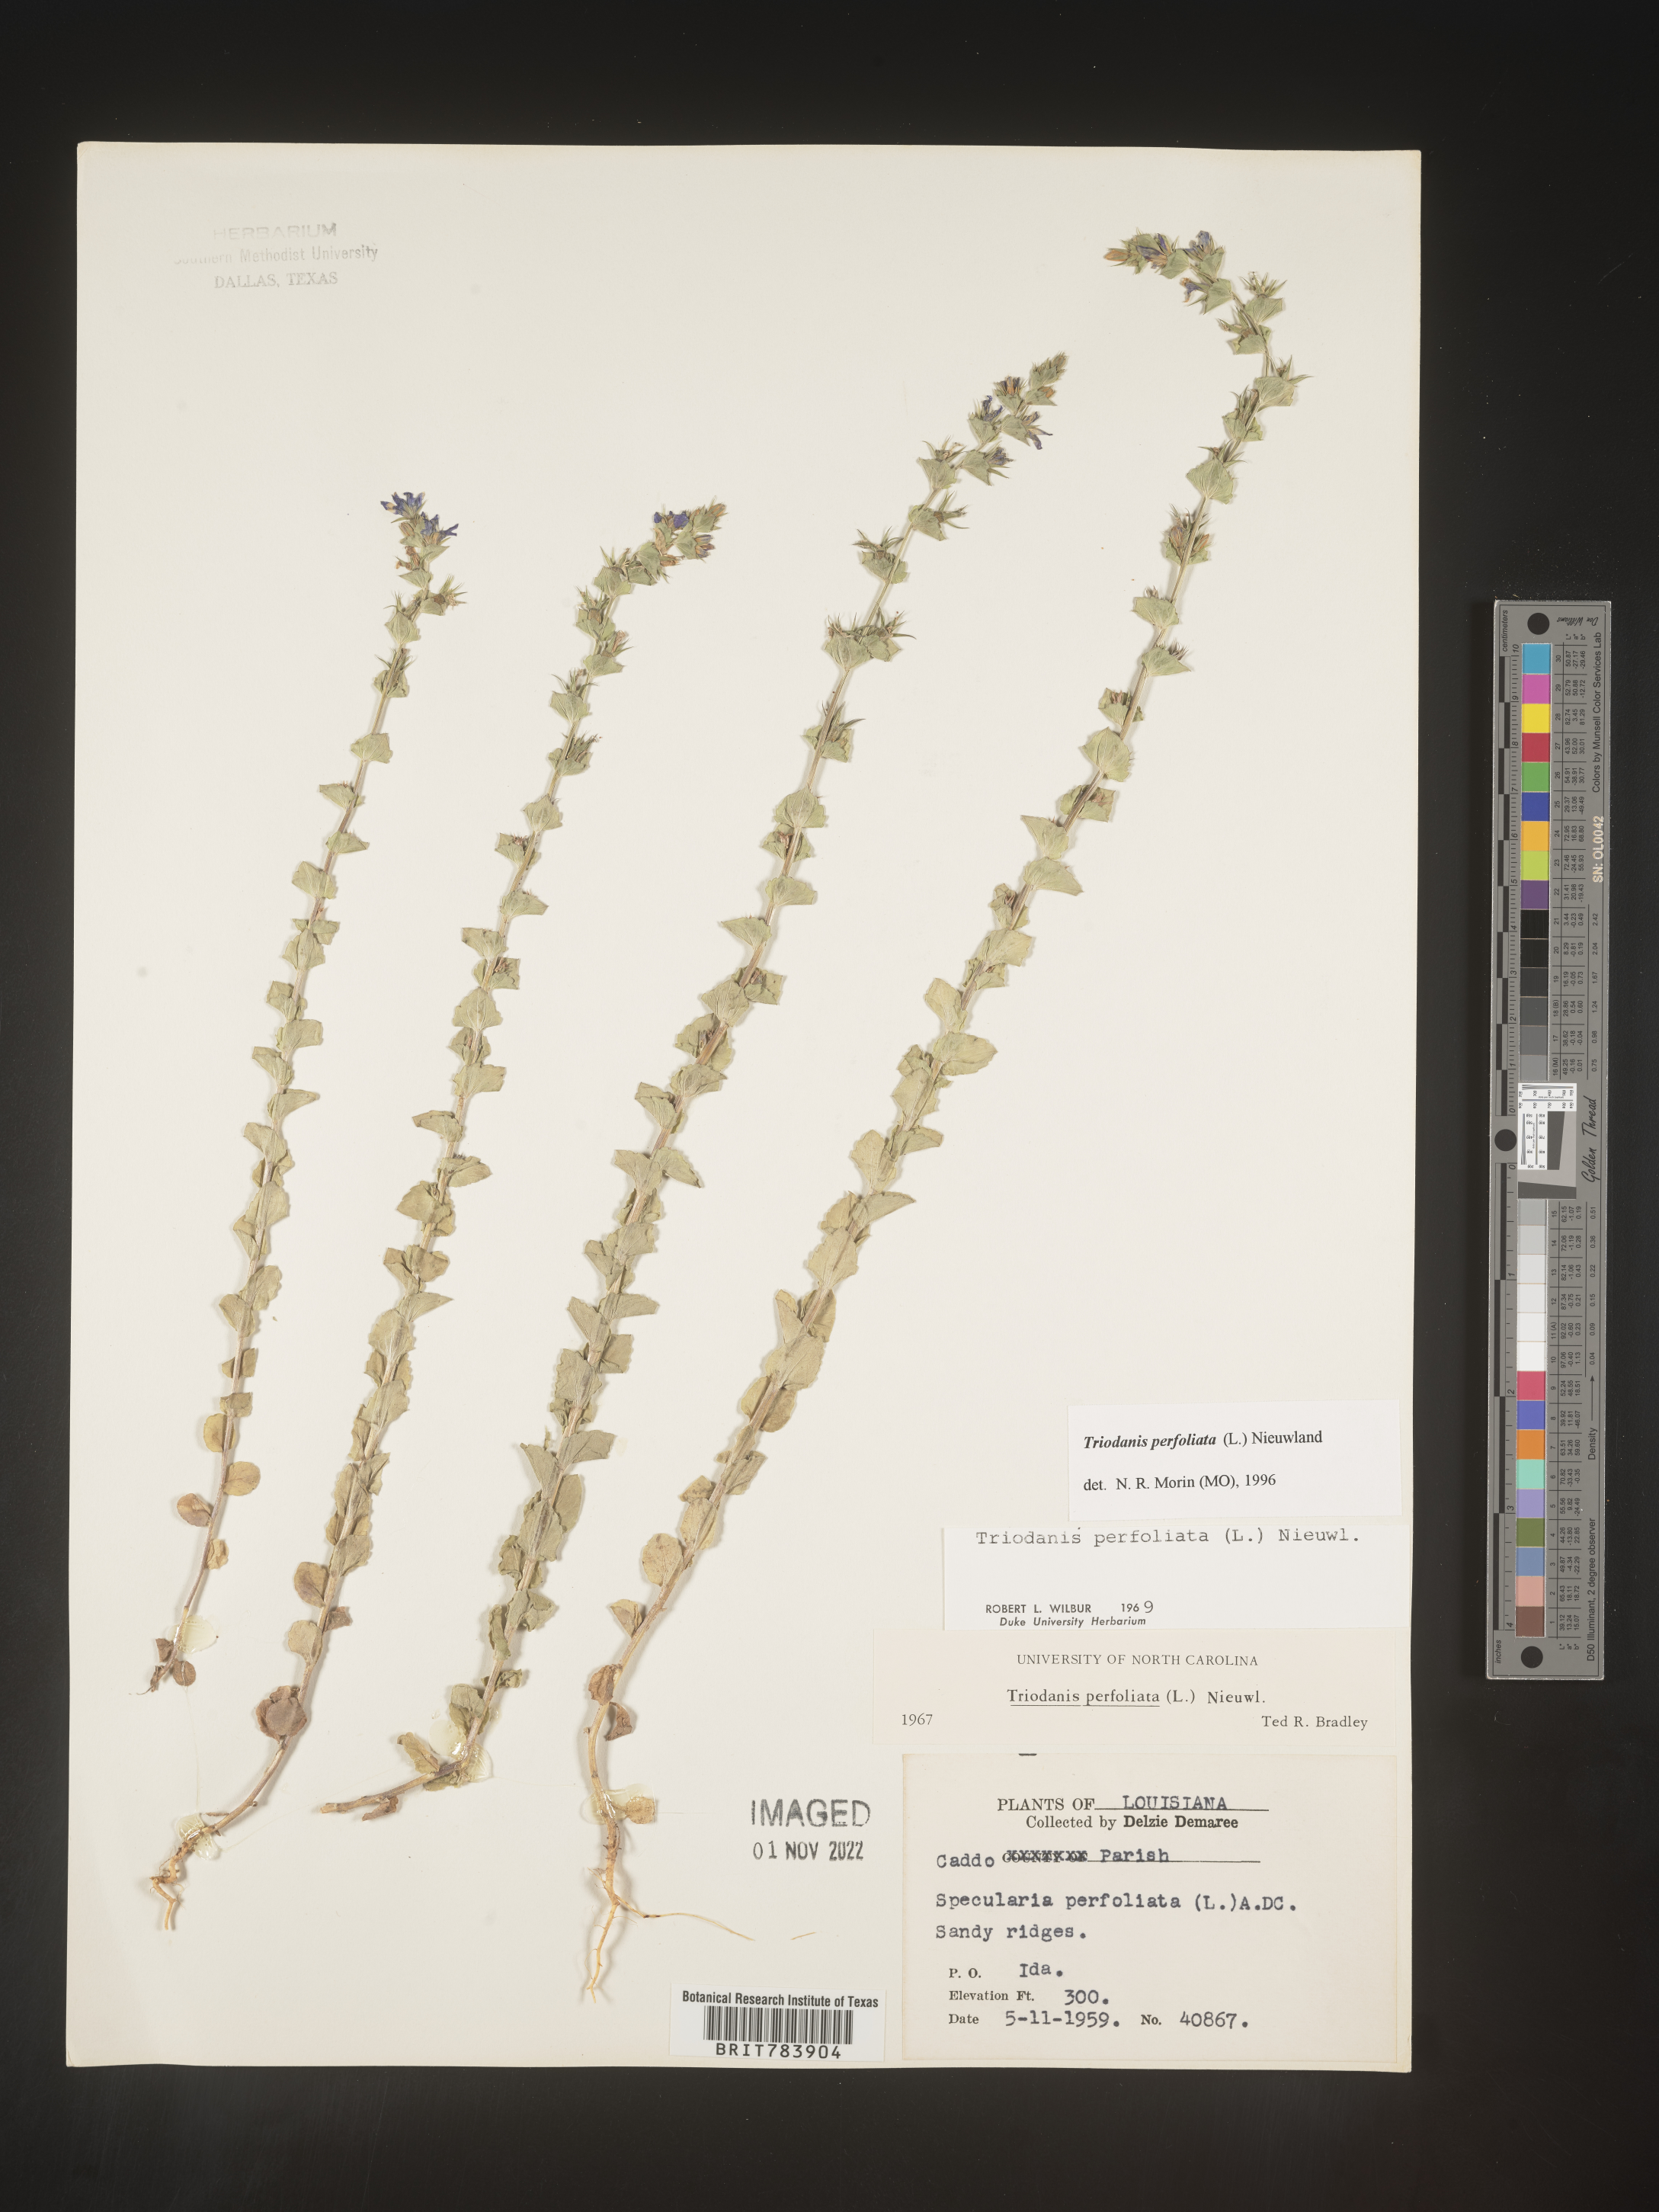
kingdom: Plantae
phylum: Tracheophyta
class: Magnoliopsida
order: Asterales
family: Campanulaceae
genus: Triodanis
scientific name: Triodanis perfoliata
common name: Clasping venus' looking-glass
